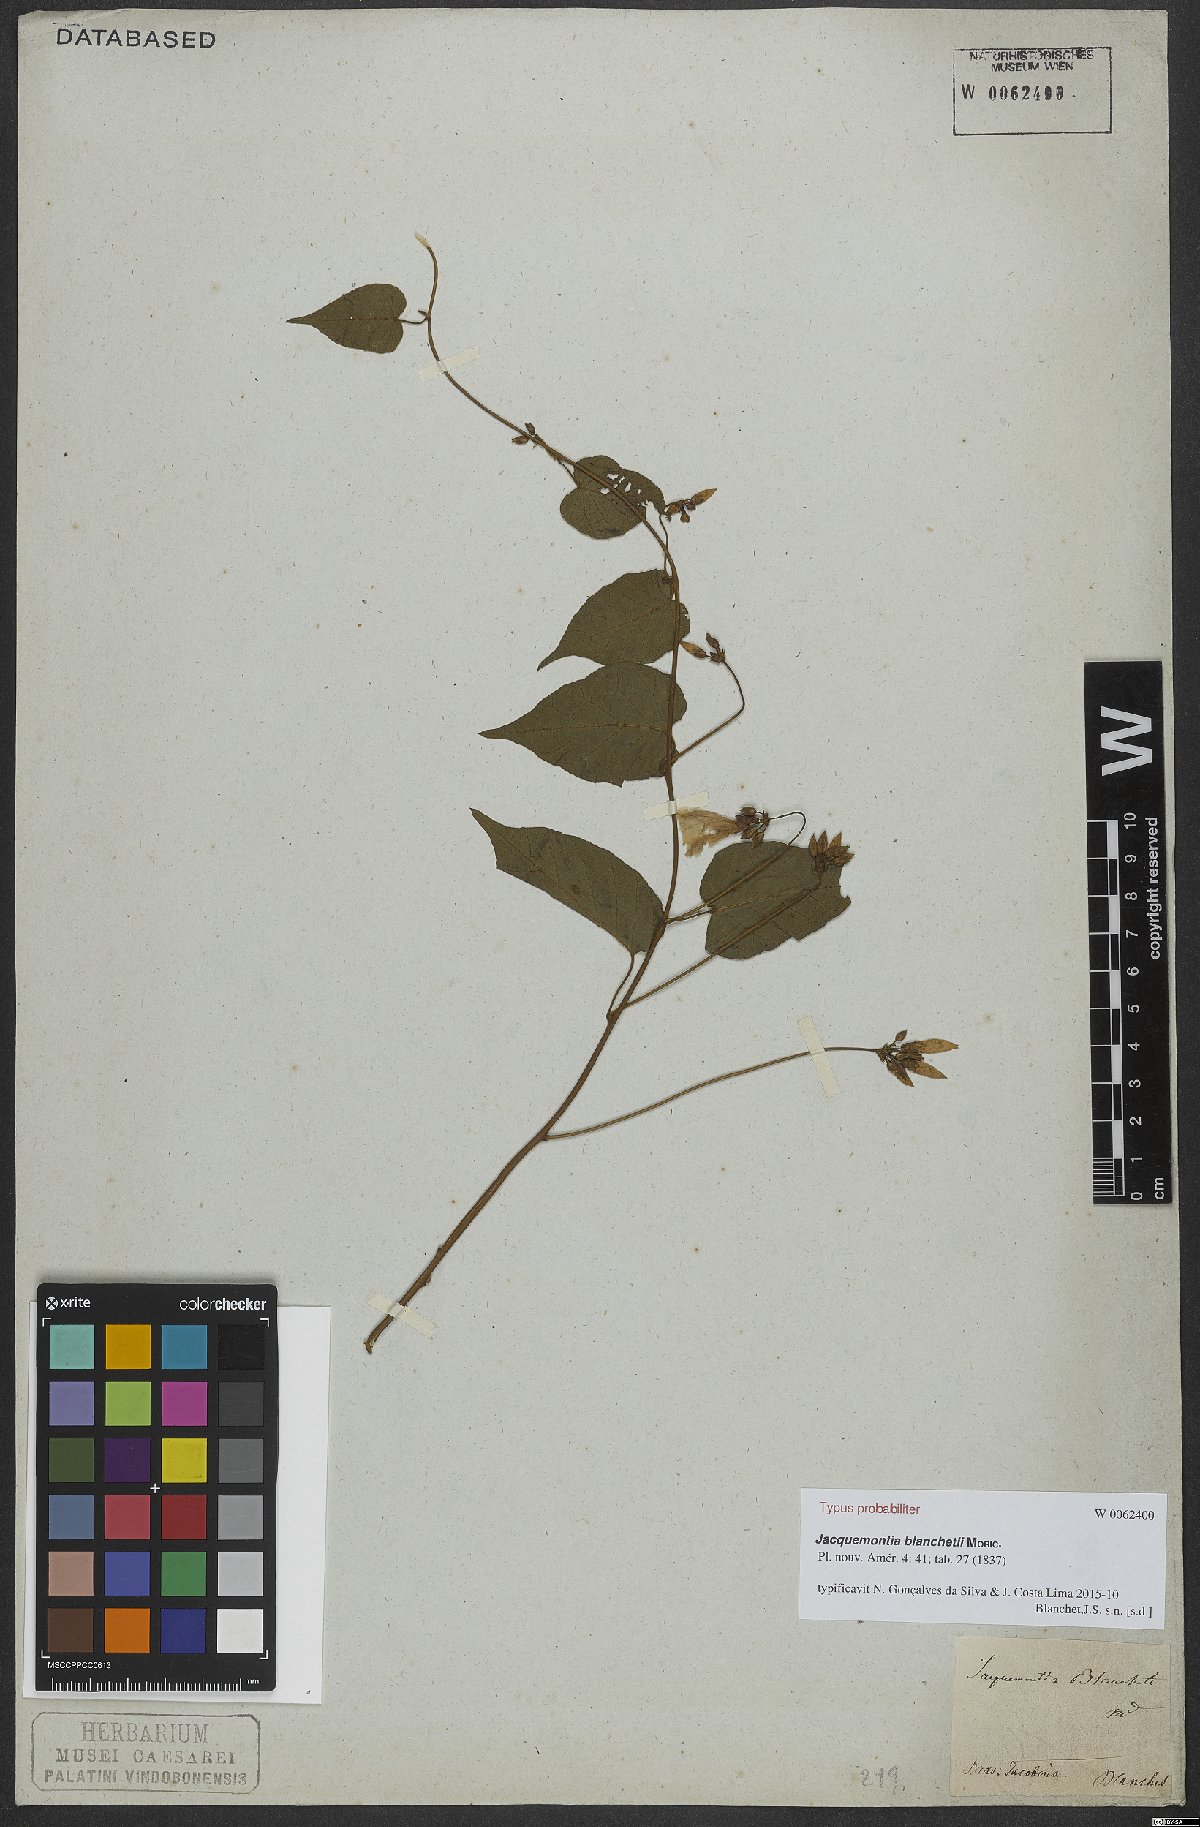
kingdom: Plantae
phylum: Tracheophyta
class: Magnoliopsida
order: Solanales
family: Convolvulaceae
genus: Jacquemontia
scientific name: Jacquemontia blanchetii
